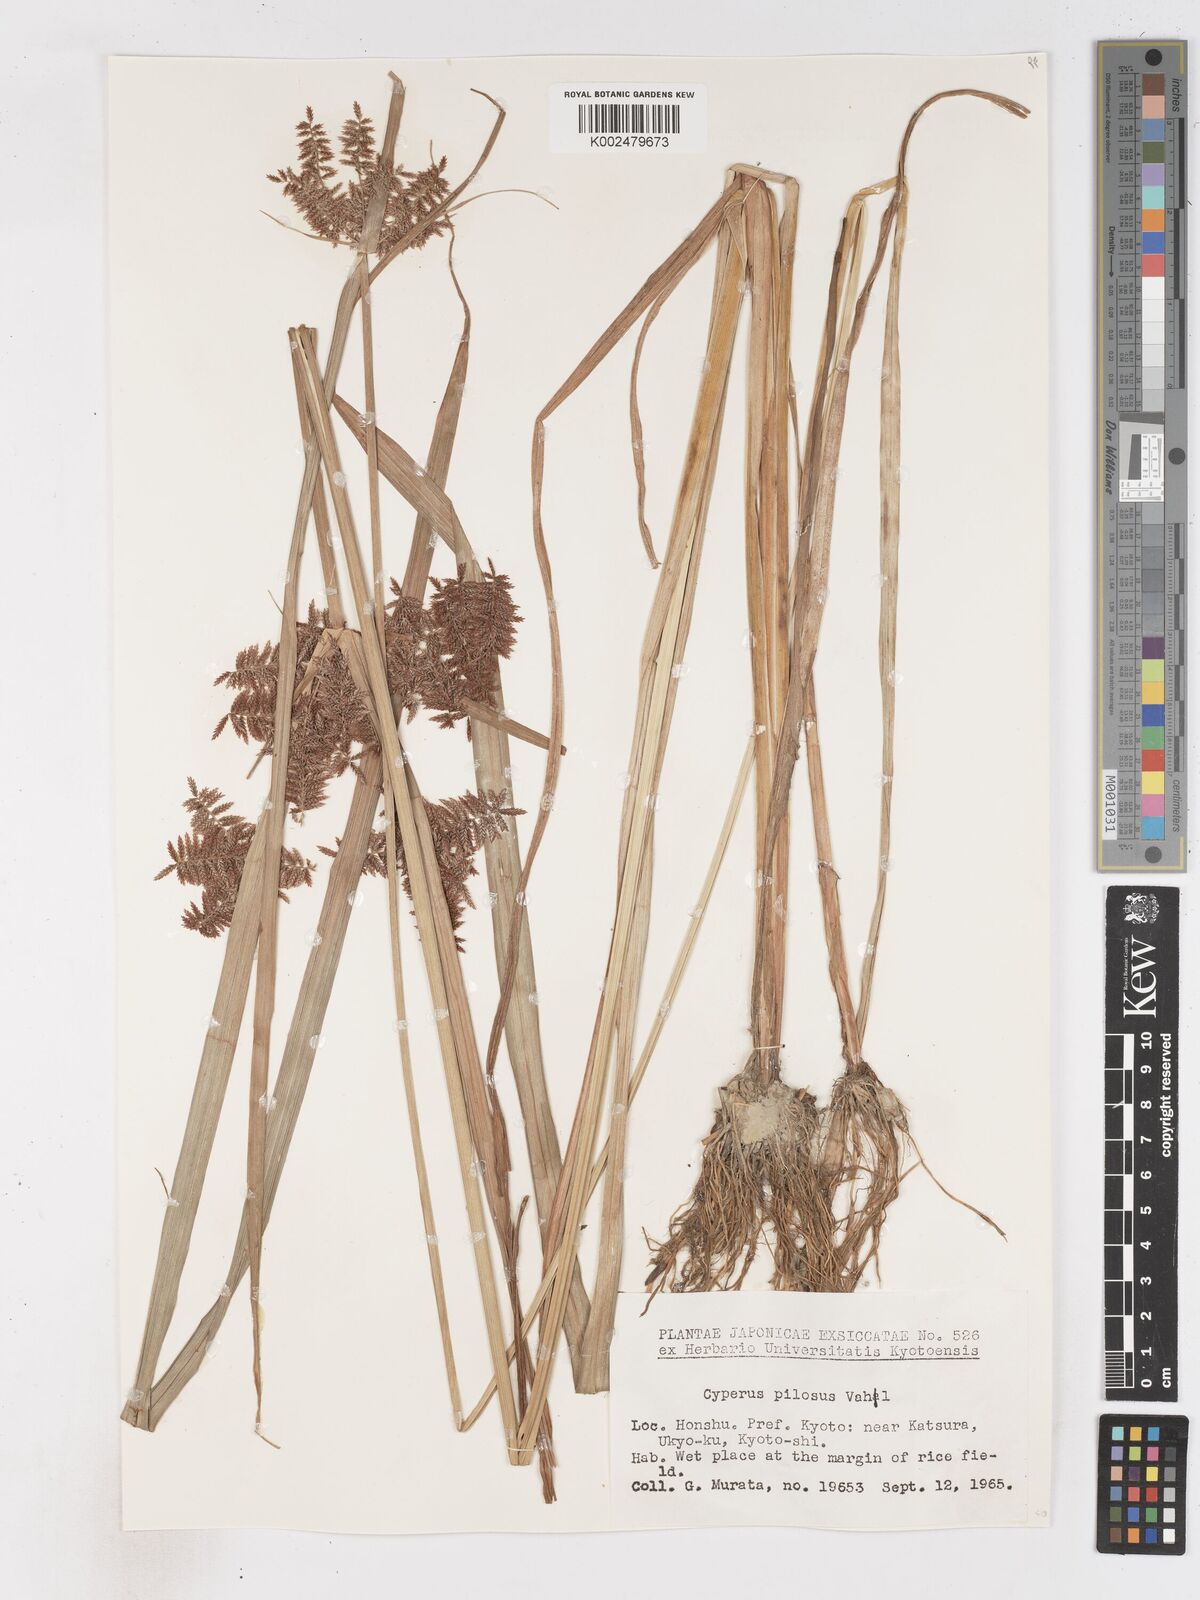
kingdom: Plantae
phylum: Tracheophyta
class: Liliopsida
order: Poales
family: Cyperaceae
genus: Cyperus
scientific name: Cyperus pilosus
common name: Fuzzy flatsedge
